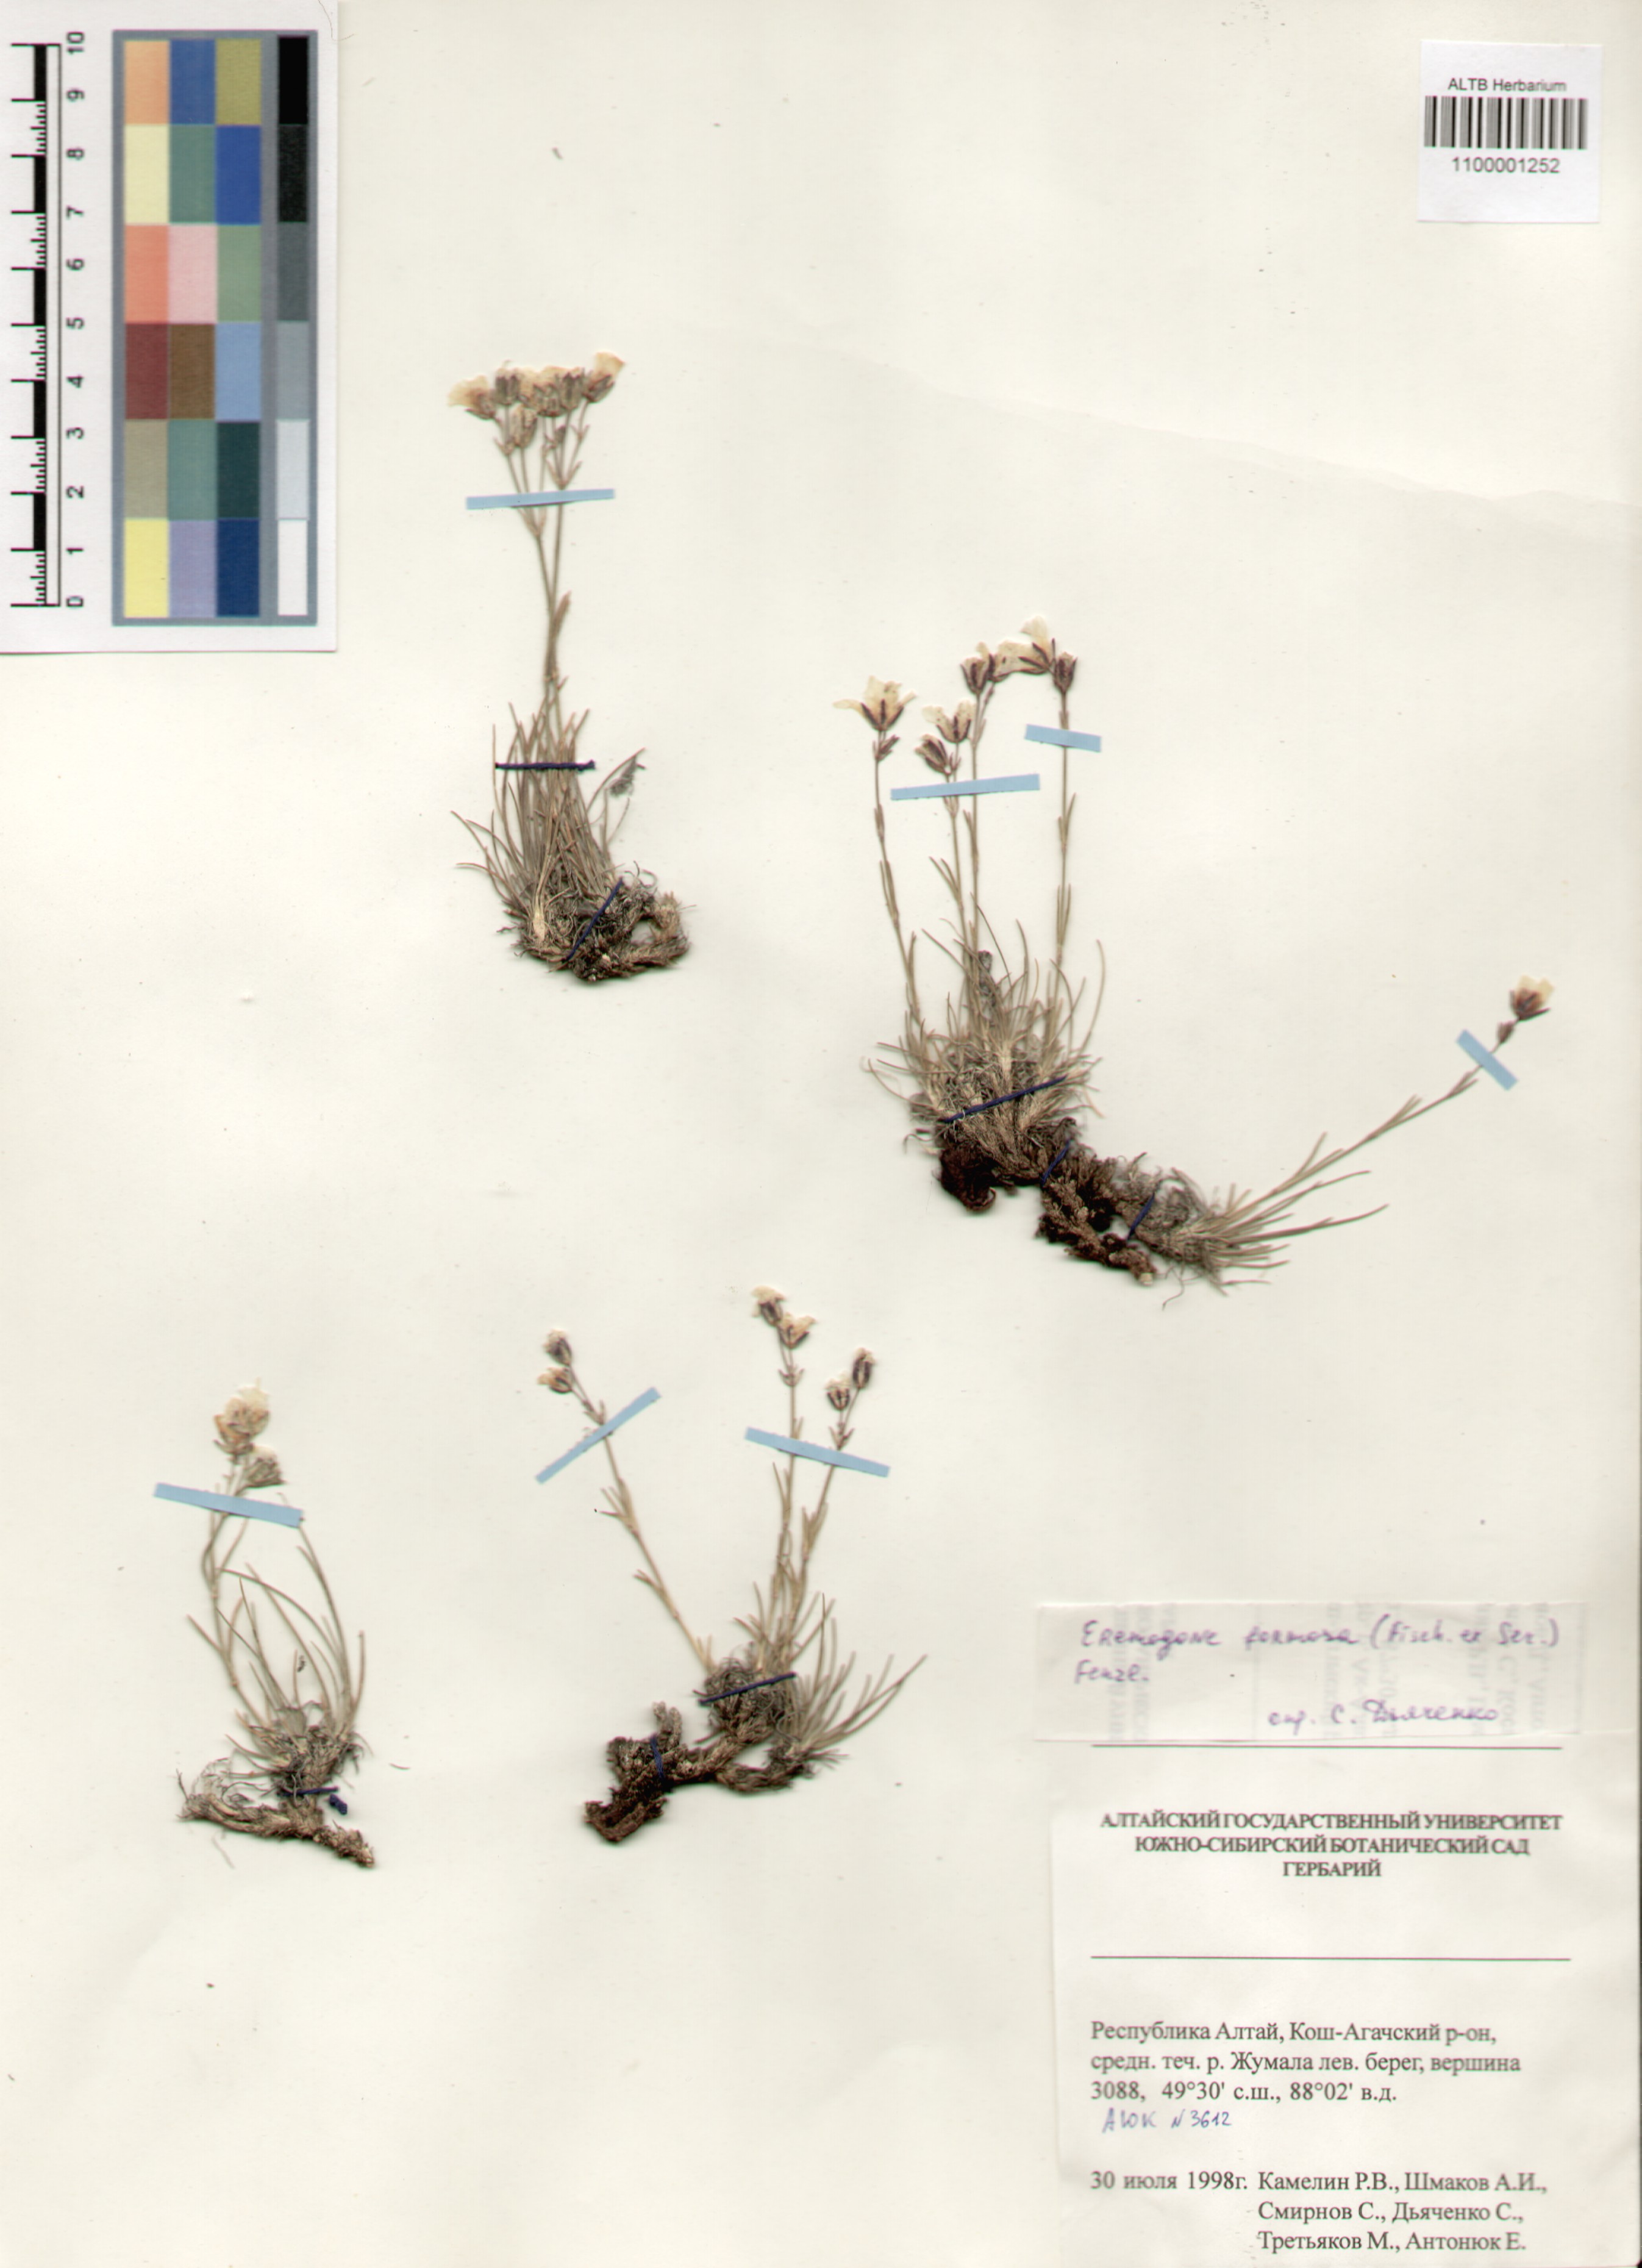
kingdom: Plantae
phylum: Tracheophyta
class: Magnoliopsida
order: Caryophyllales
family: Caryophyllaceae
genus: Eremogone
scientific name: Eremogone formosa
